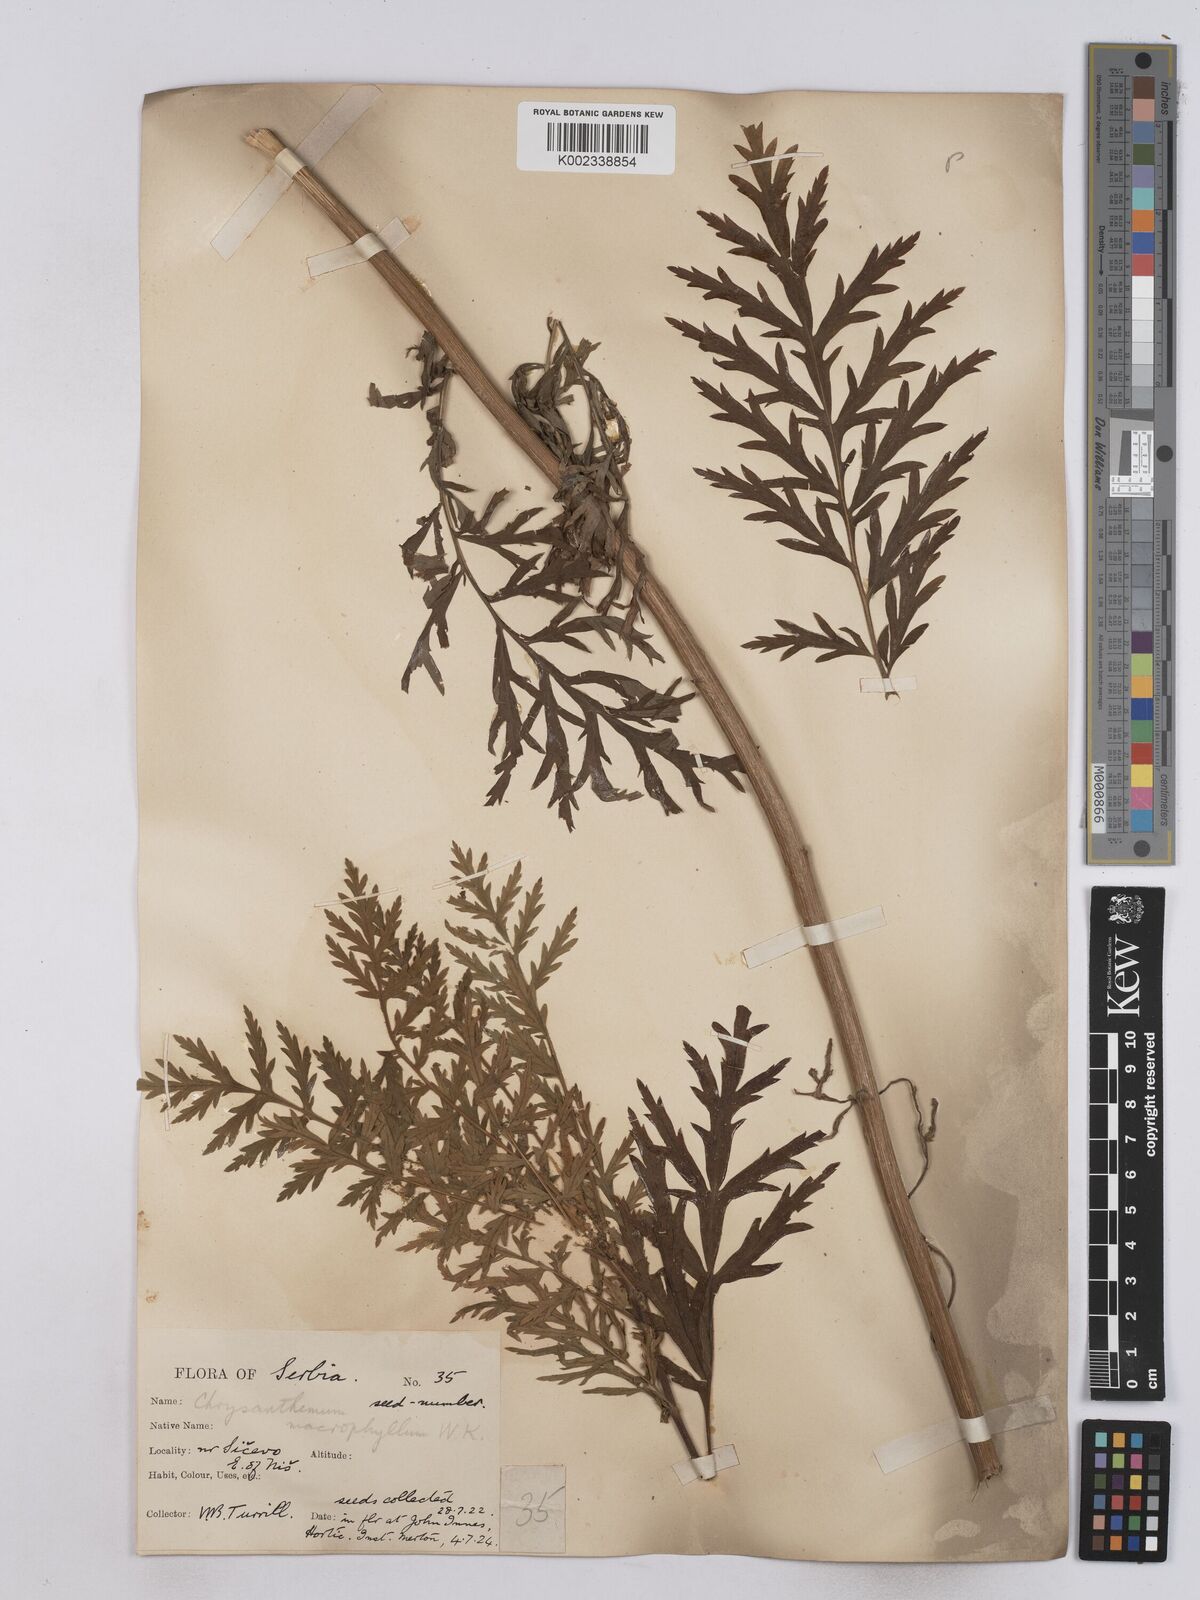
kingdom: Plantae
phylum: Tracheophyta
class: Magnoliopsida
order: Asterales
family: Asteraceae
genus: Tanacetum
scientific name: Tanacetum macrophyllum
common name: Rayed tansy
